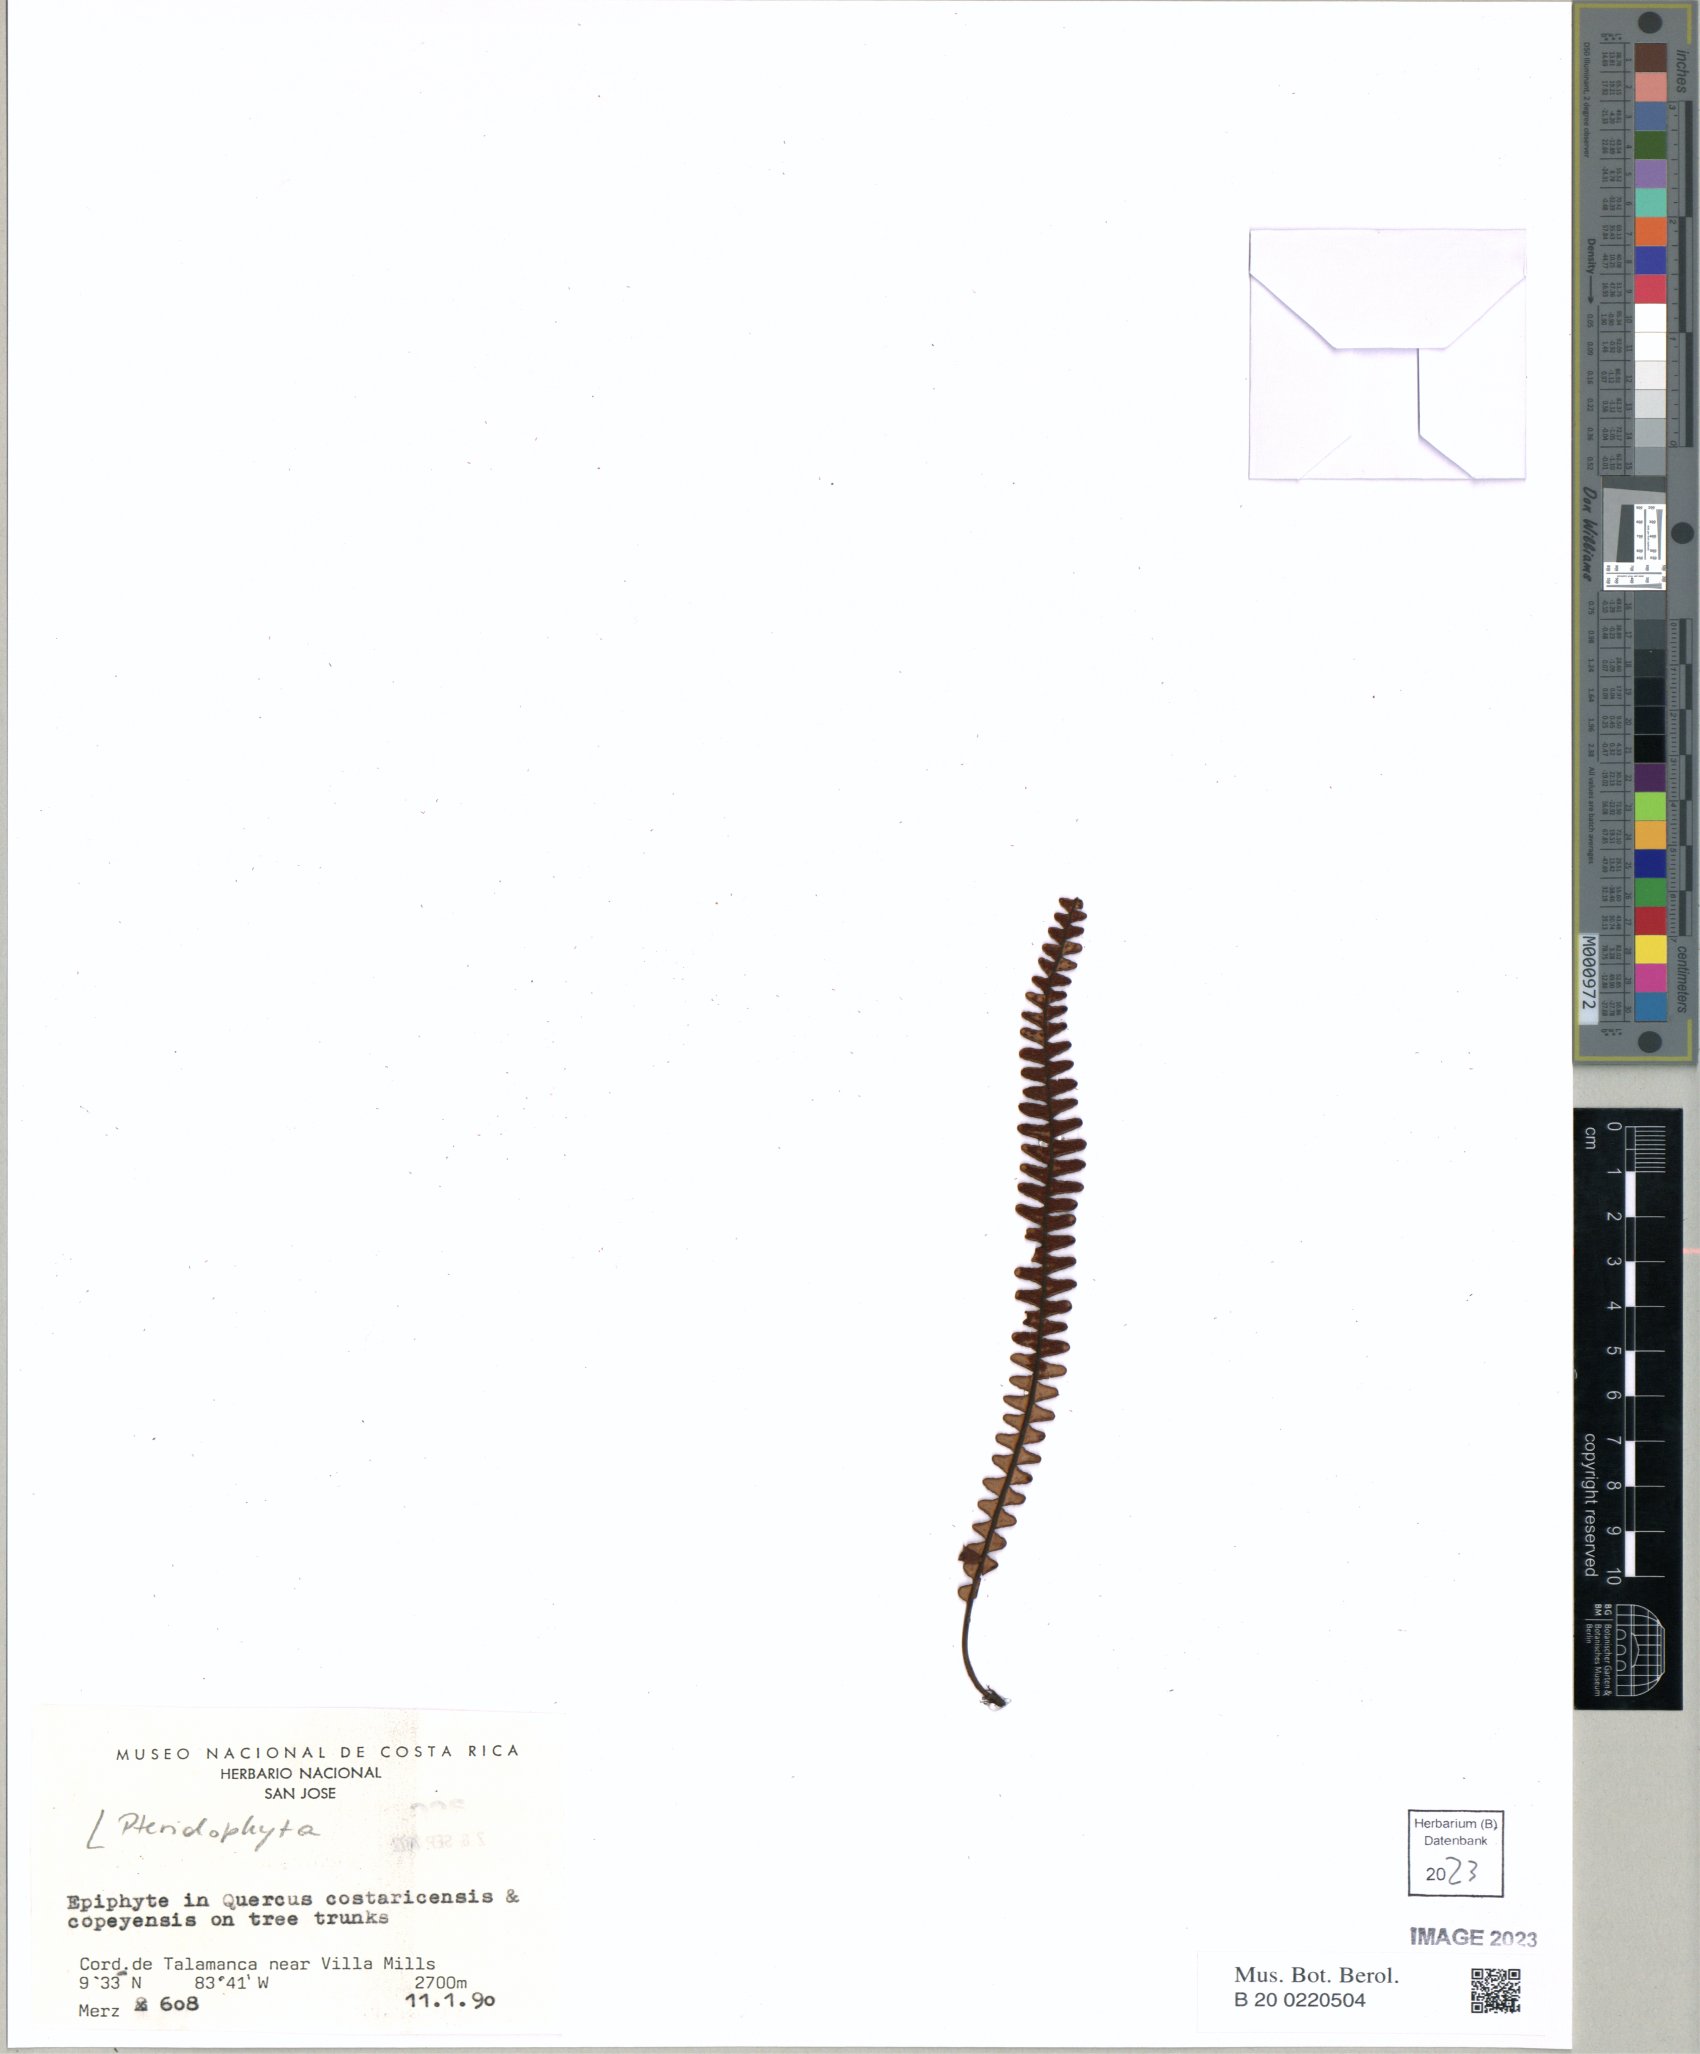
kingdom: Plantae
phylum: Tracheophyta
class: Polypodiopsida
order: Polypodiales
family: Polypodiaceae
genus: Melpomene
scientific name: Melpomene moniliformis
